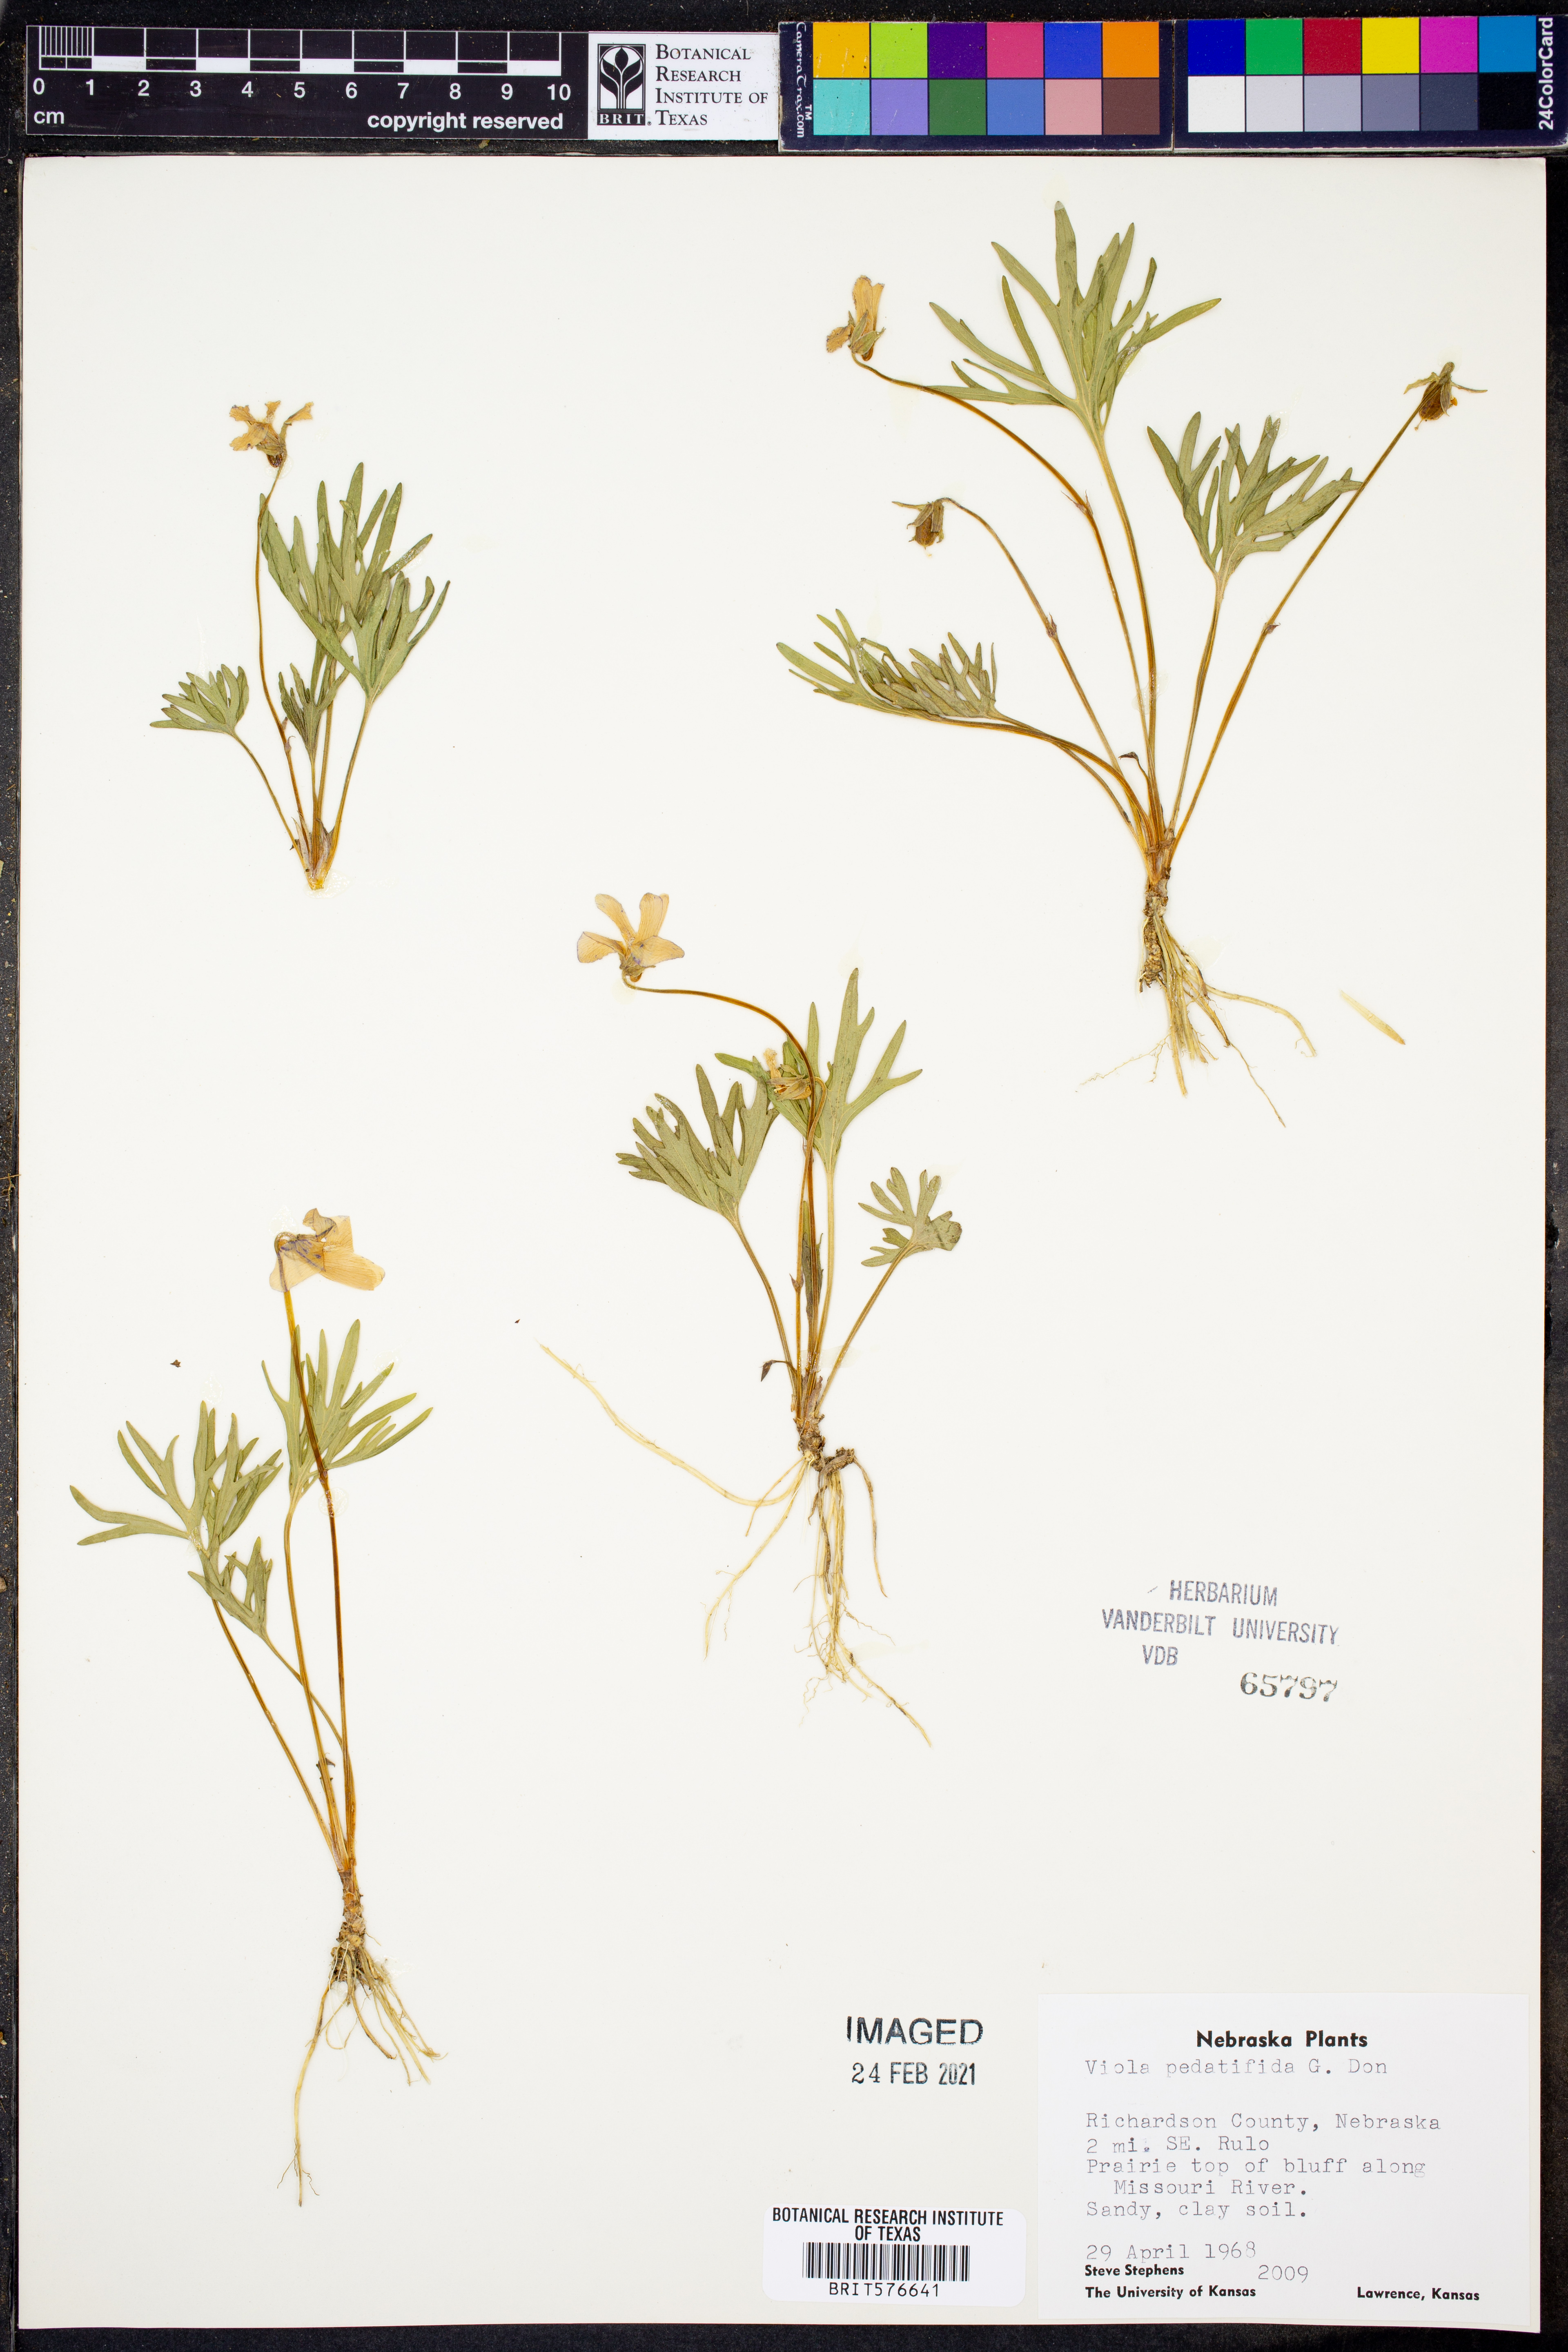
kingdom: Plantae
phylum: Tracheophyta
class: Magnoliopsida
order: Malpighiales
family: Violaceae
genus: Viola
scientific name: Viola pedatifida
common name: Prairie violet
